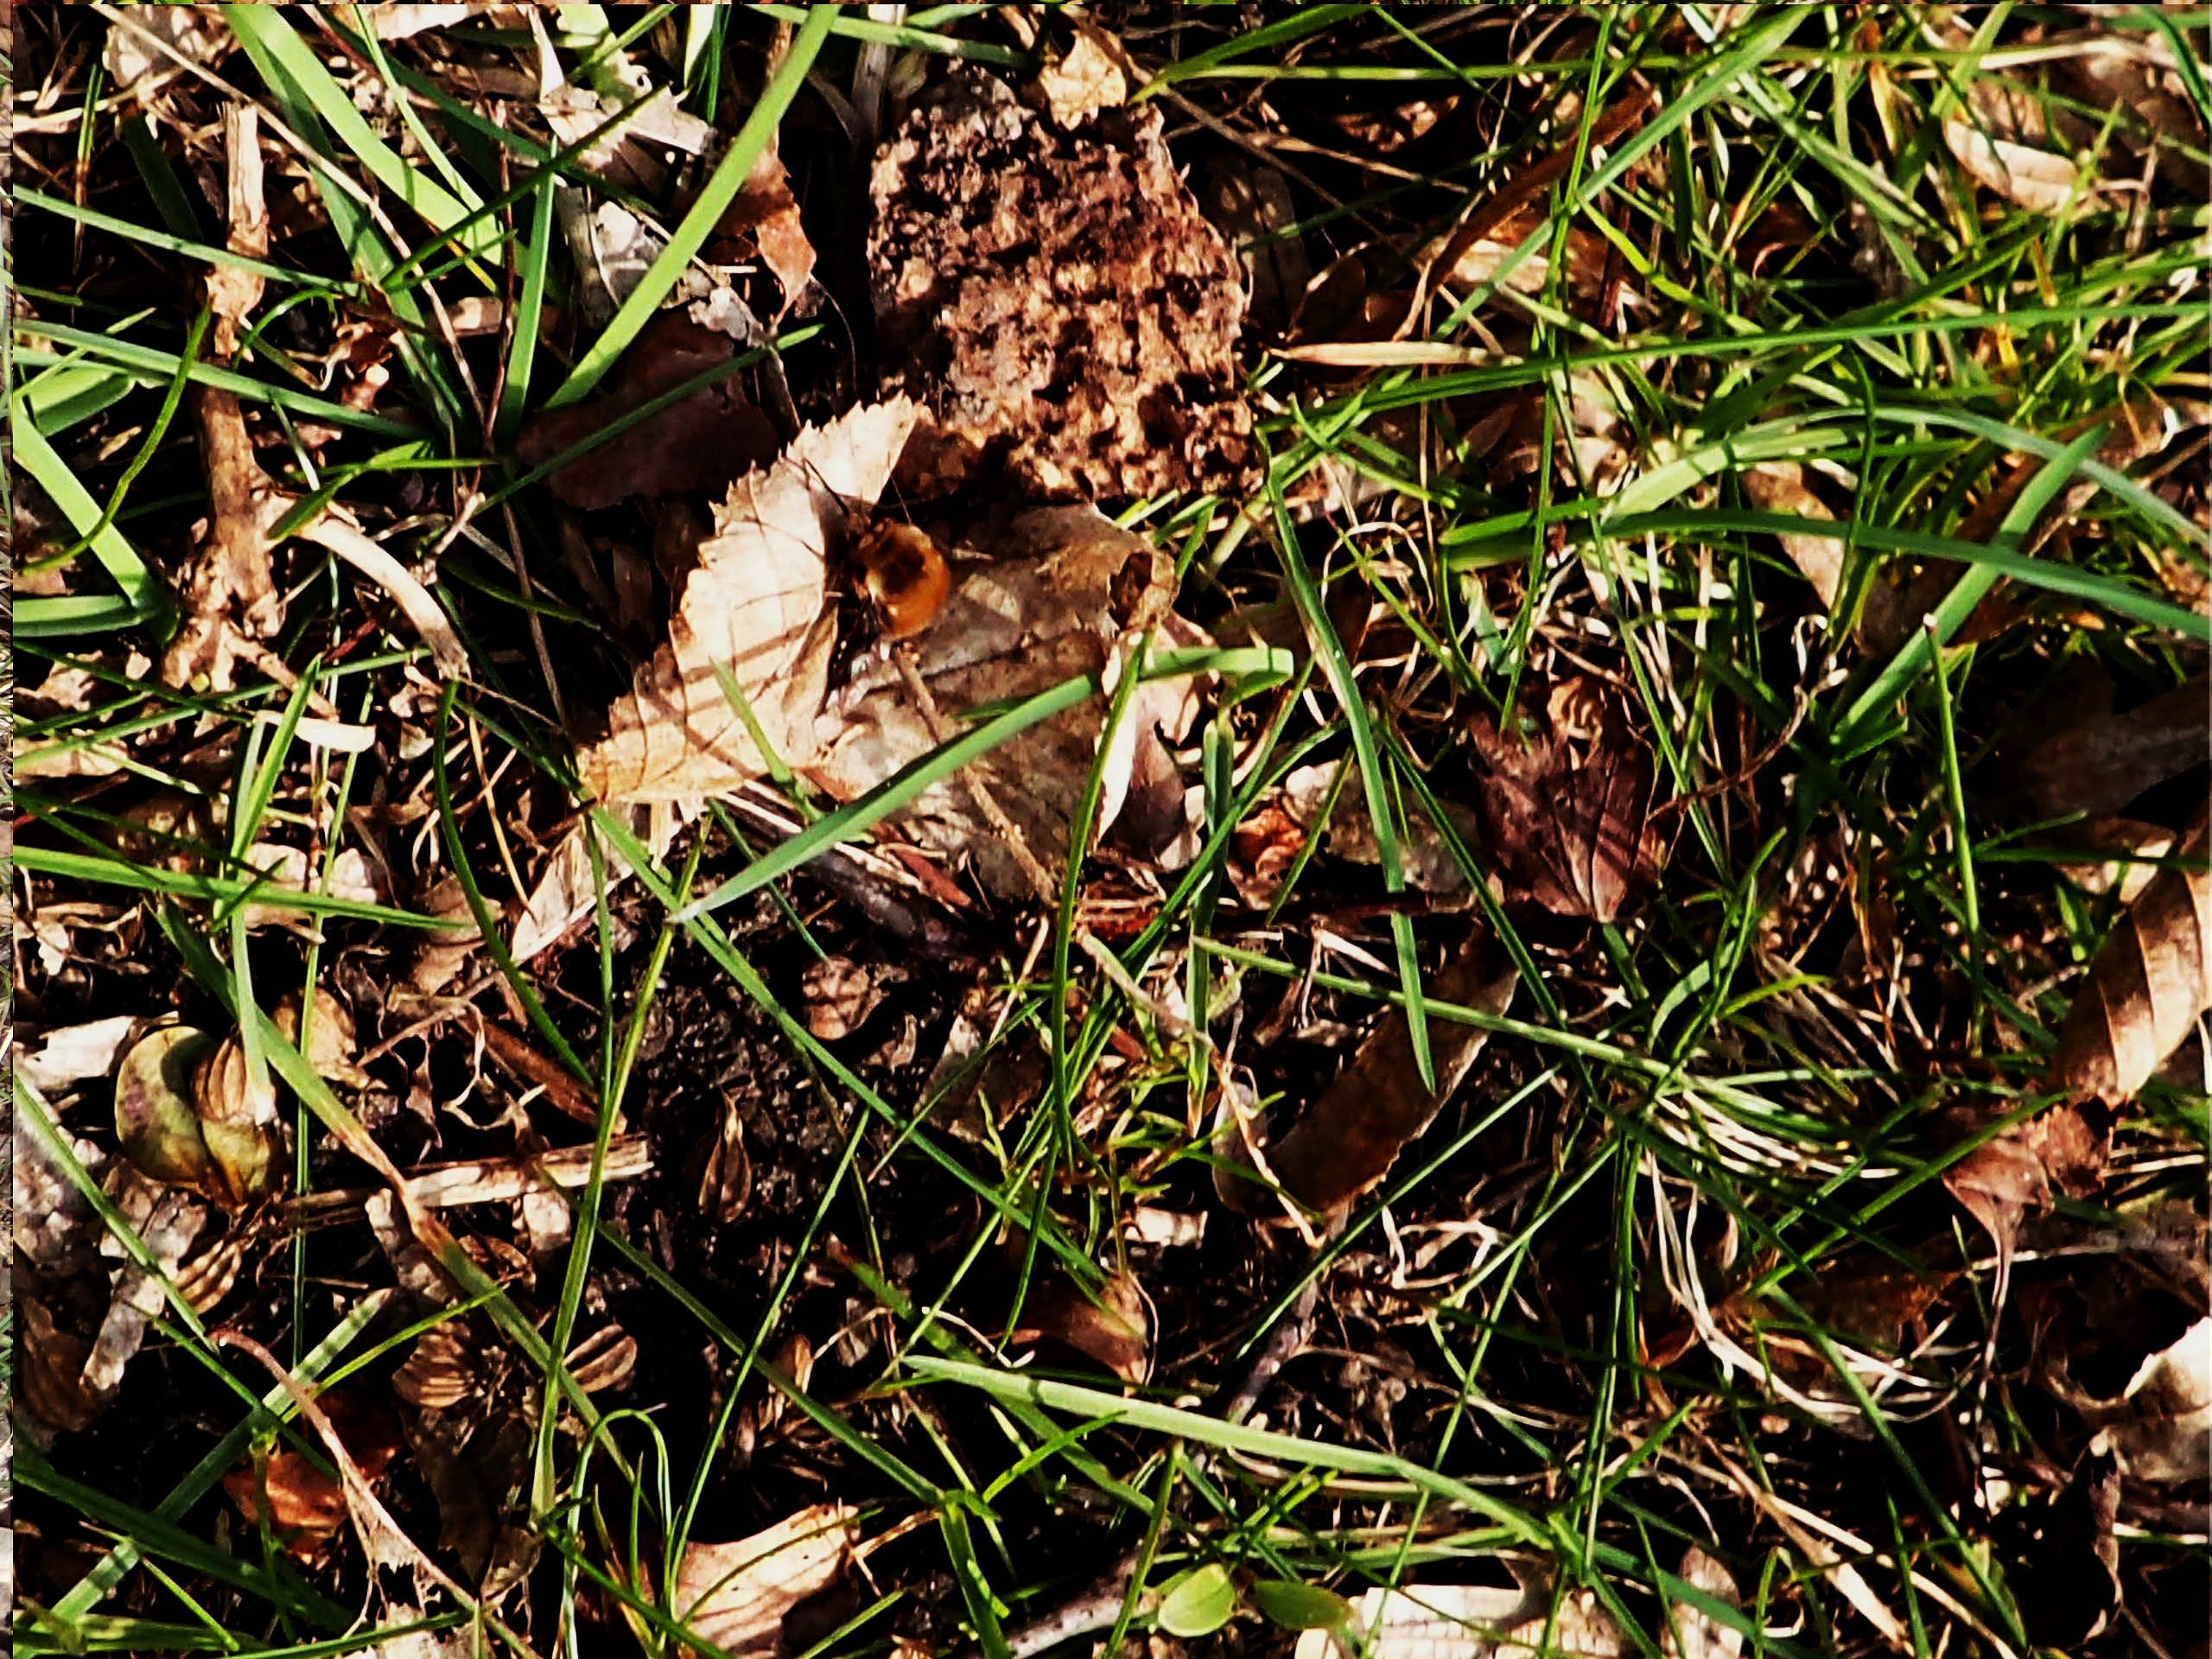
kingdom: Animalia
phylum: Arthropoda
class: Insecta
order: Diptera
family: Bombyliidae
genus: Bombylius
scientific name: Bombylius major
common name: Stor humleflue
